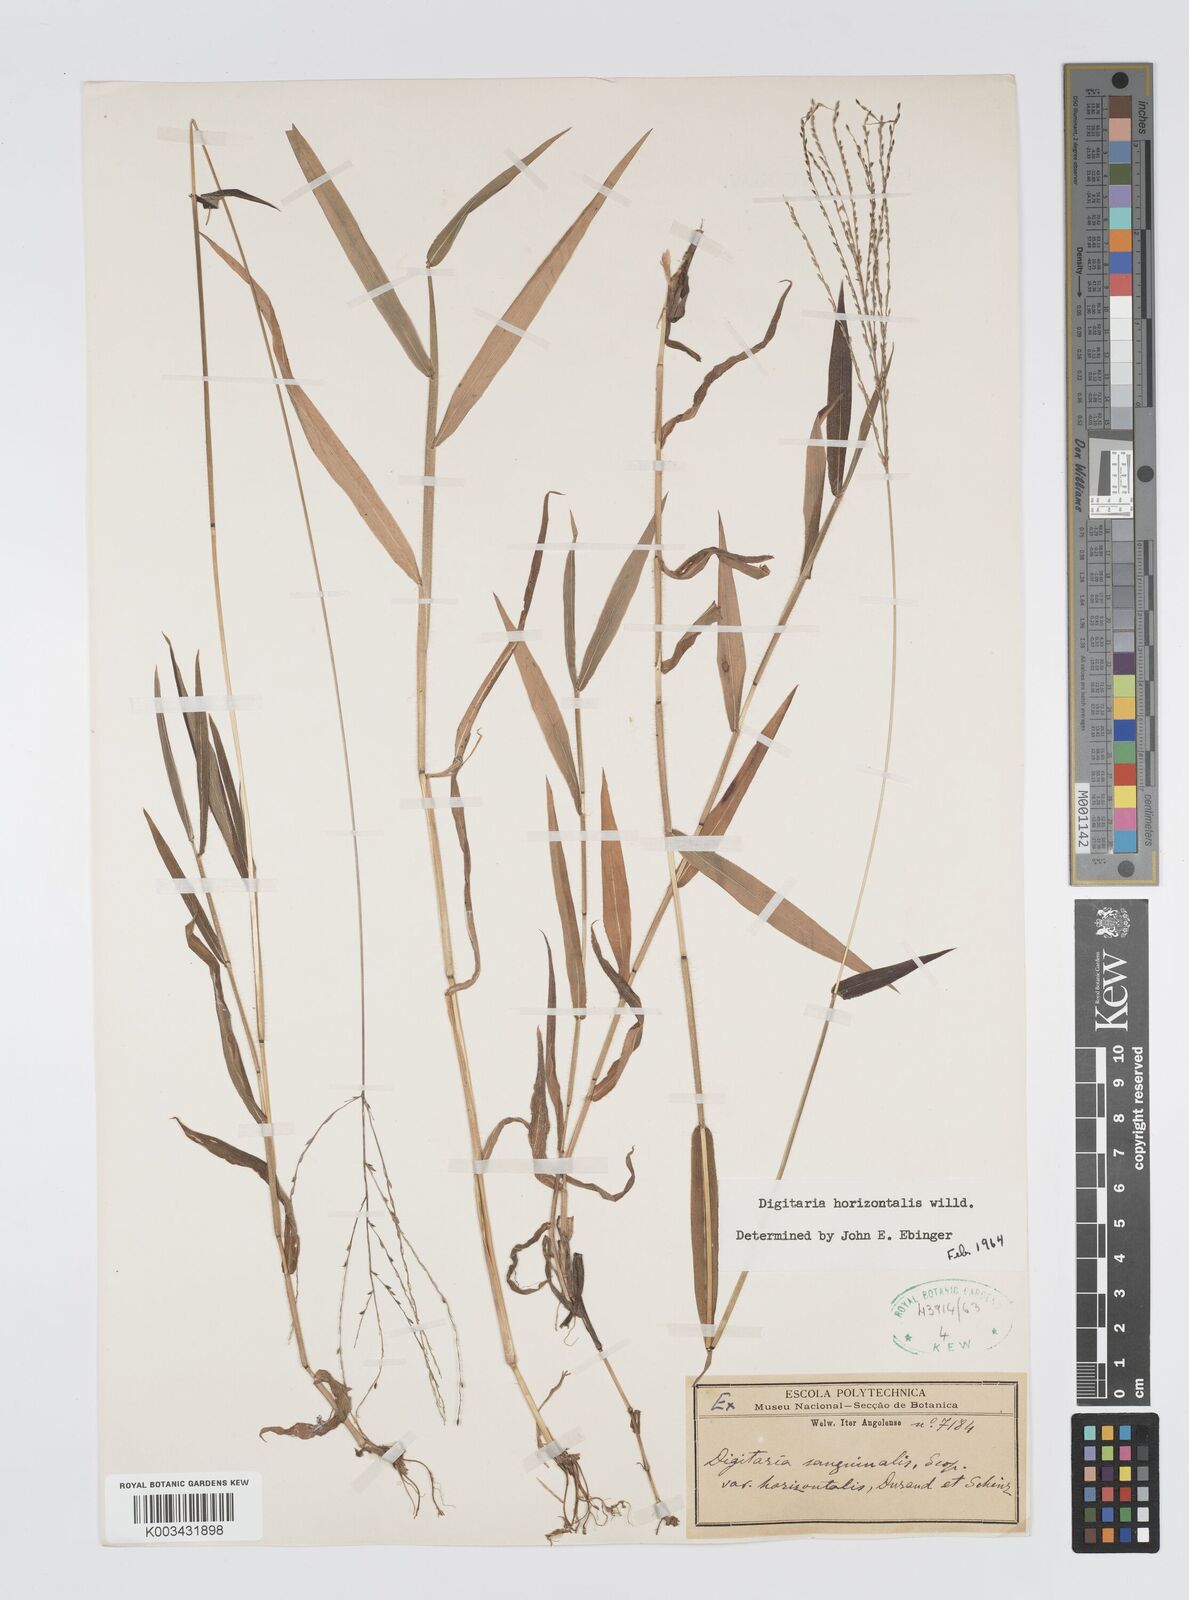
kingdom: Plantae
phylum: Tracheophyta
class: Liliopsida
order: Poales
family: Poaceae
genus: Digitaria
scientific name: Digitaria velutina
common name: Long-plume finger grass
